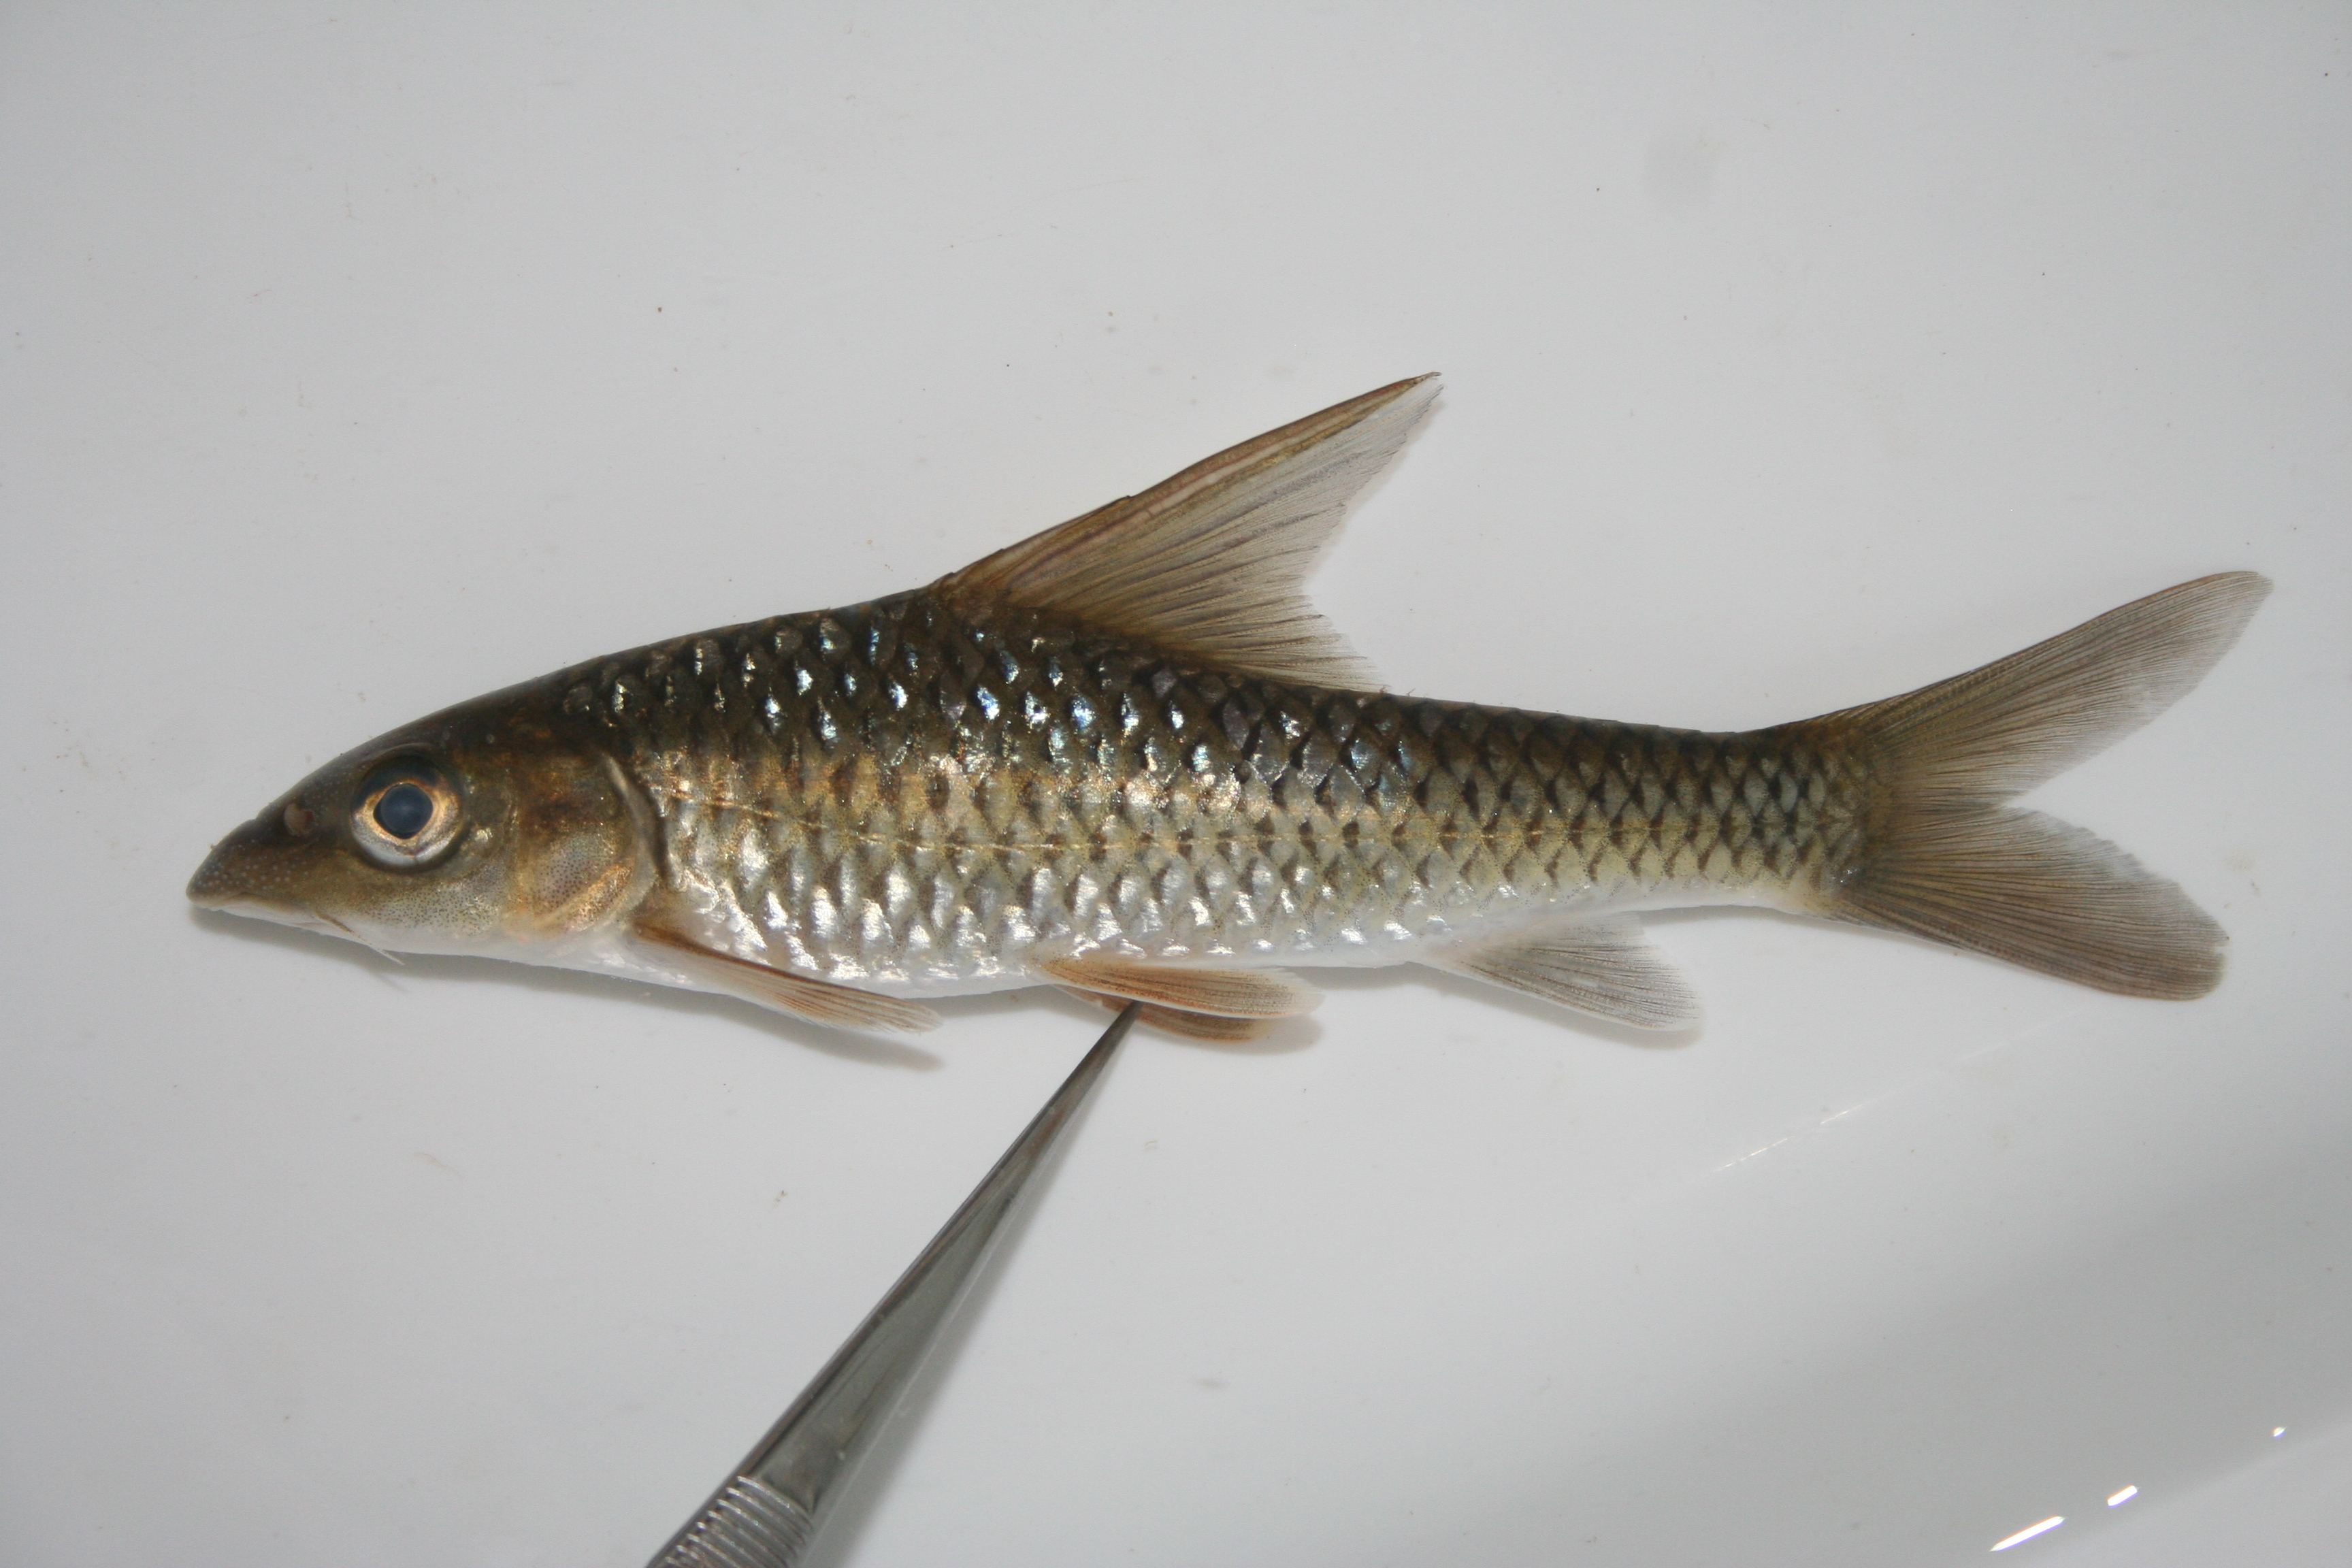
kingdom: Animalia
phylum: Chordata
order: Cypriniformes
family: Cyprinidae
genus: Labeobarbus
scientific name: Labeobarbus rhinophorus
